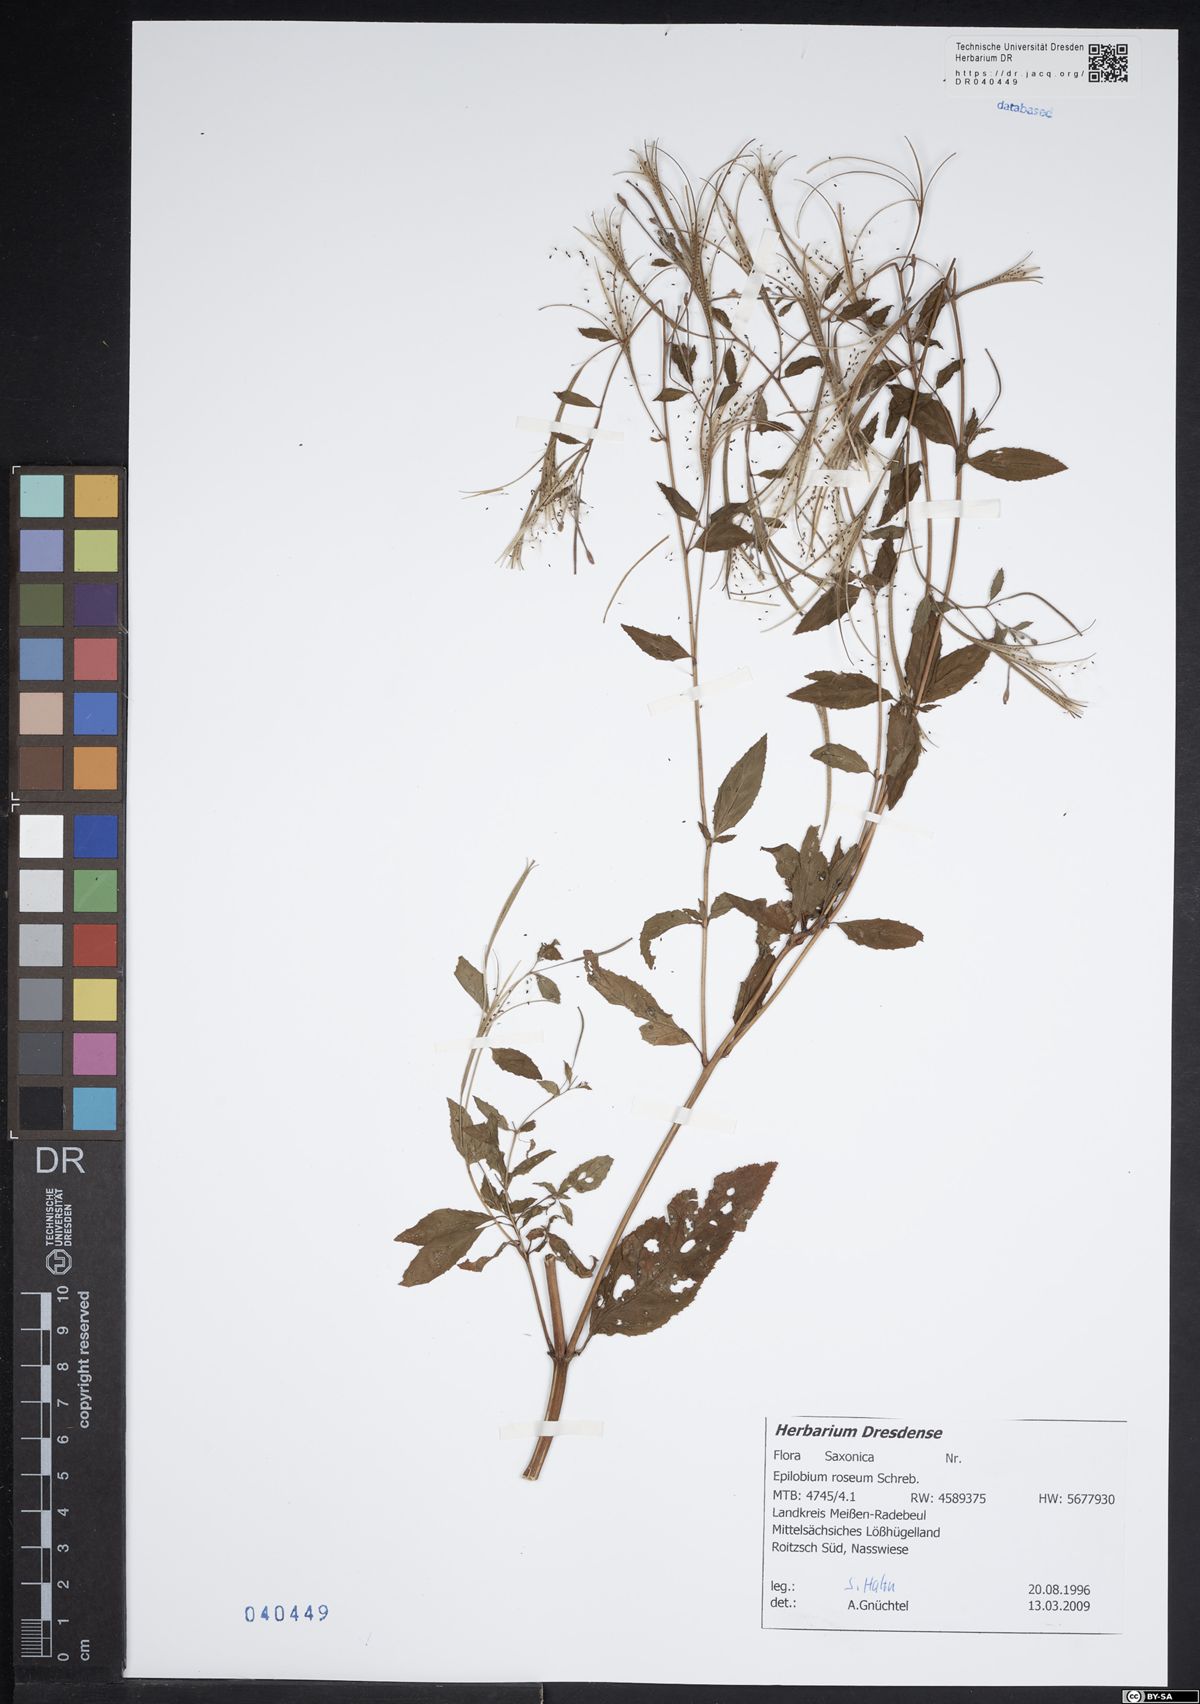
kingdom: Plantae
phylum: Tracheophyta
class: Magnoliopsida
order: Myrtales
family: Onagraceae
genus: Epilobium
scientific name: Epilobium roseum
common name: Pale willowherb
